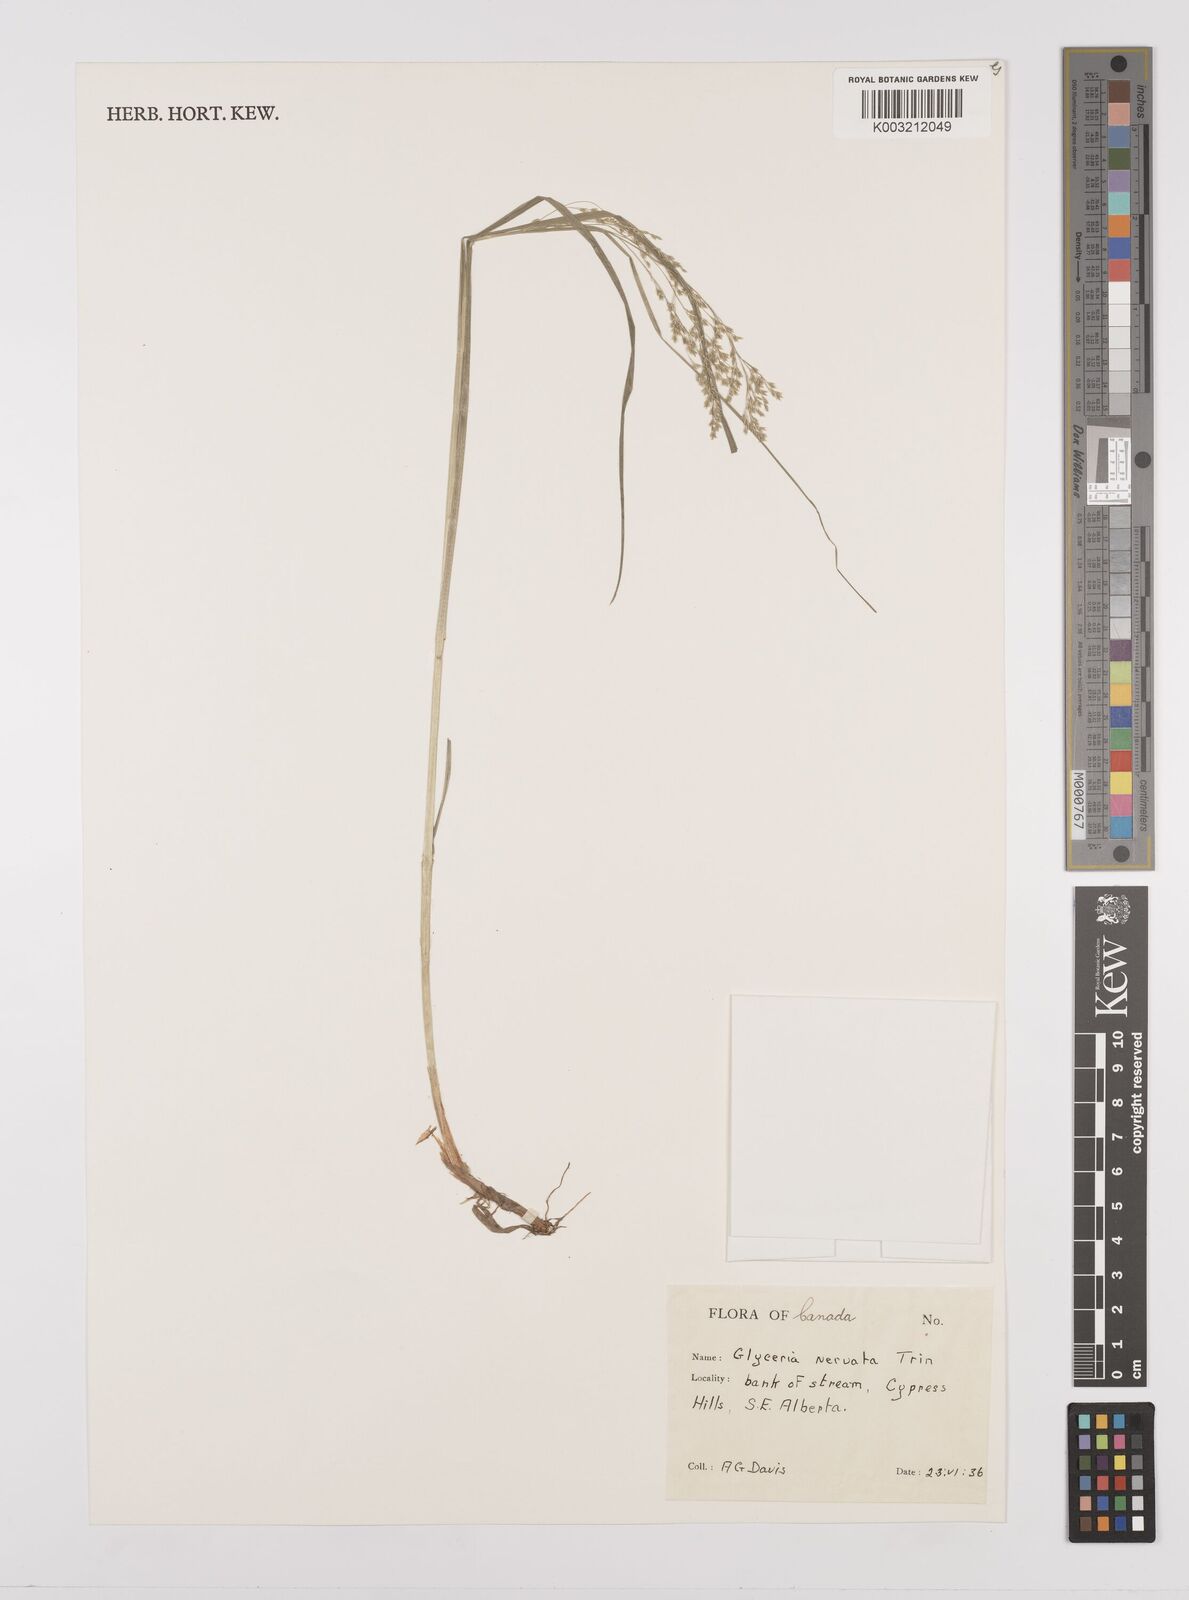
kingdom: Plantae
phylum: Tracheophyta
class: Liliopsida
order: Poales
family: Poaceae
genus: Glyceria
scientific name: Glyceria striata
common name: Fowl manna grass
